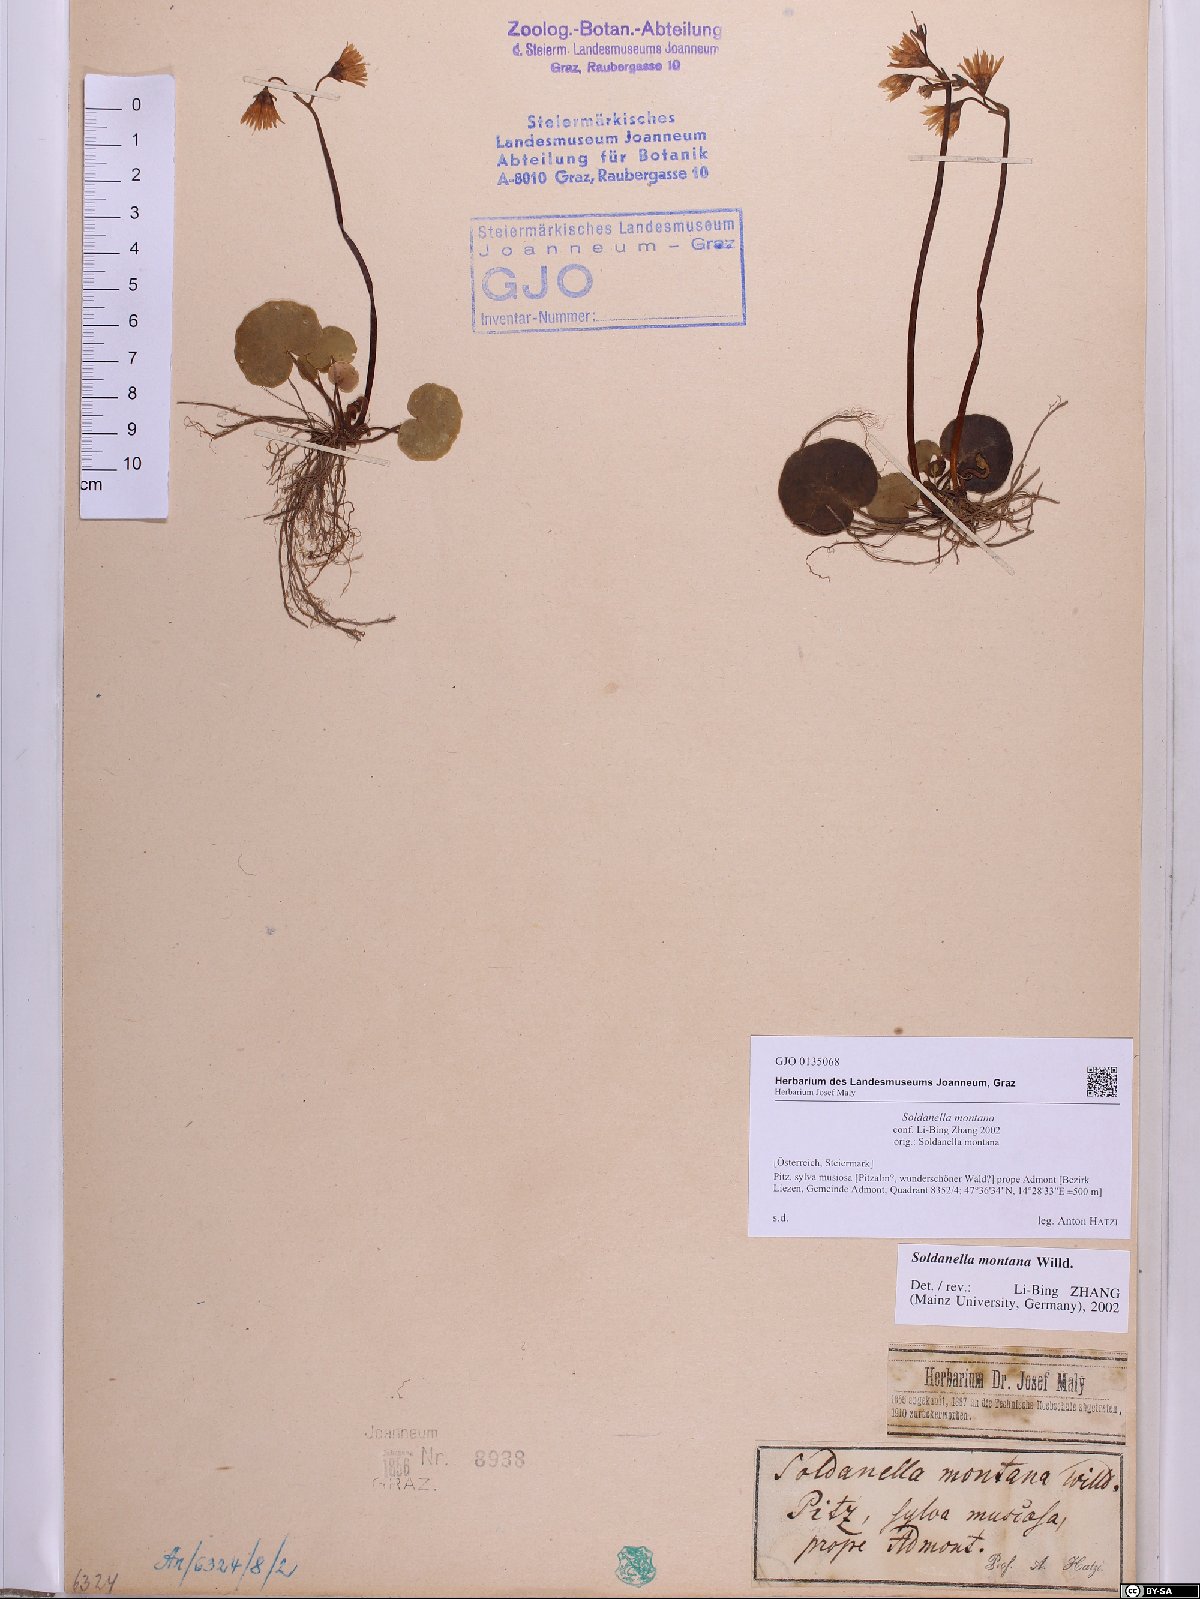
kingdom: Plantae
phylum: Tracheophyta
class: Magnoliopsida
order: Ericales
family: Primulaceae
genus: Soldanella
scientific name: Soldanella montana
